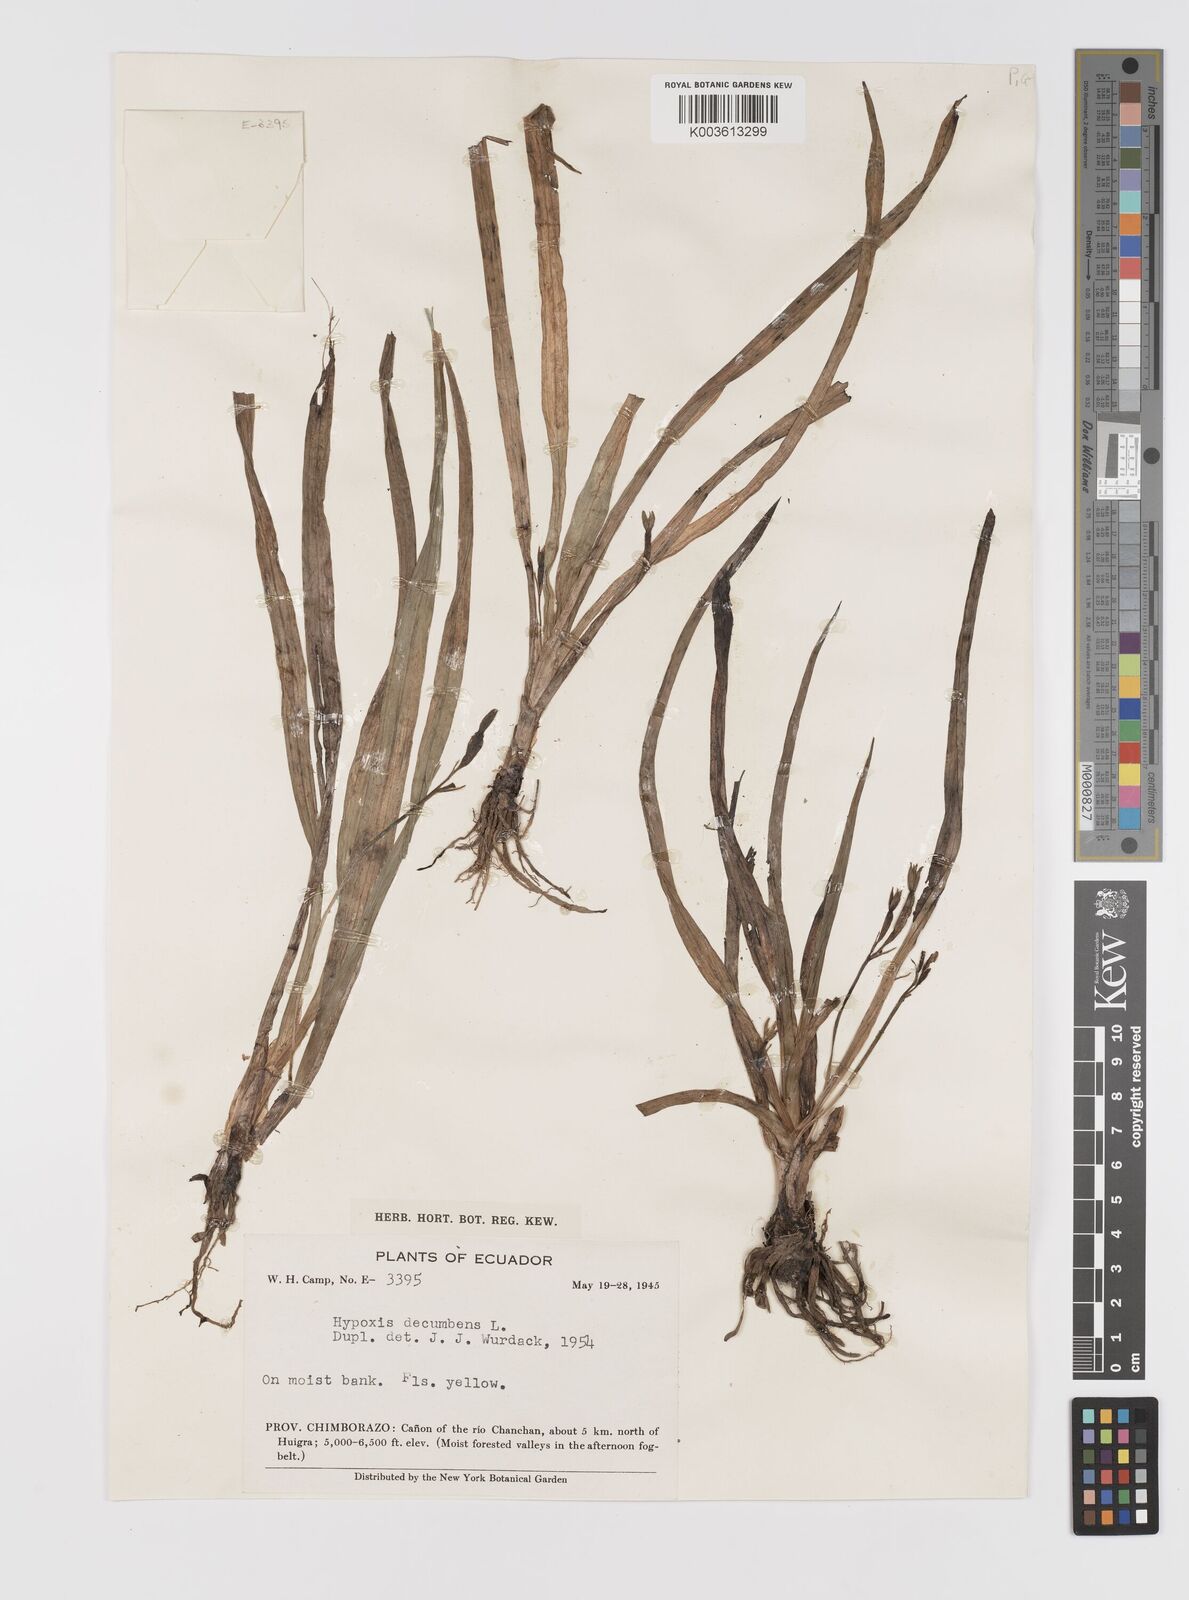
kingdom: Plantae
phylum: Tracheophyta
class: Liliopsida
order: Asparagales
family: Hypoxidaceae
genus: Hypoxis
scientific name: Hypoxis decumbens
